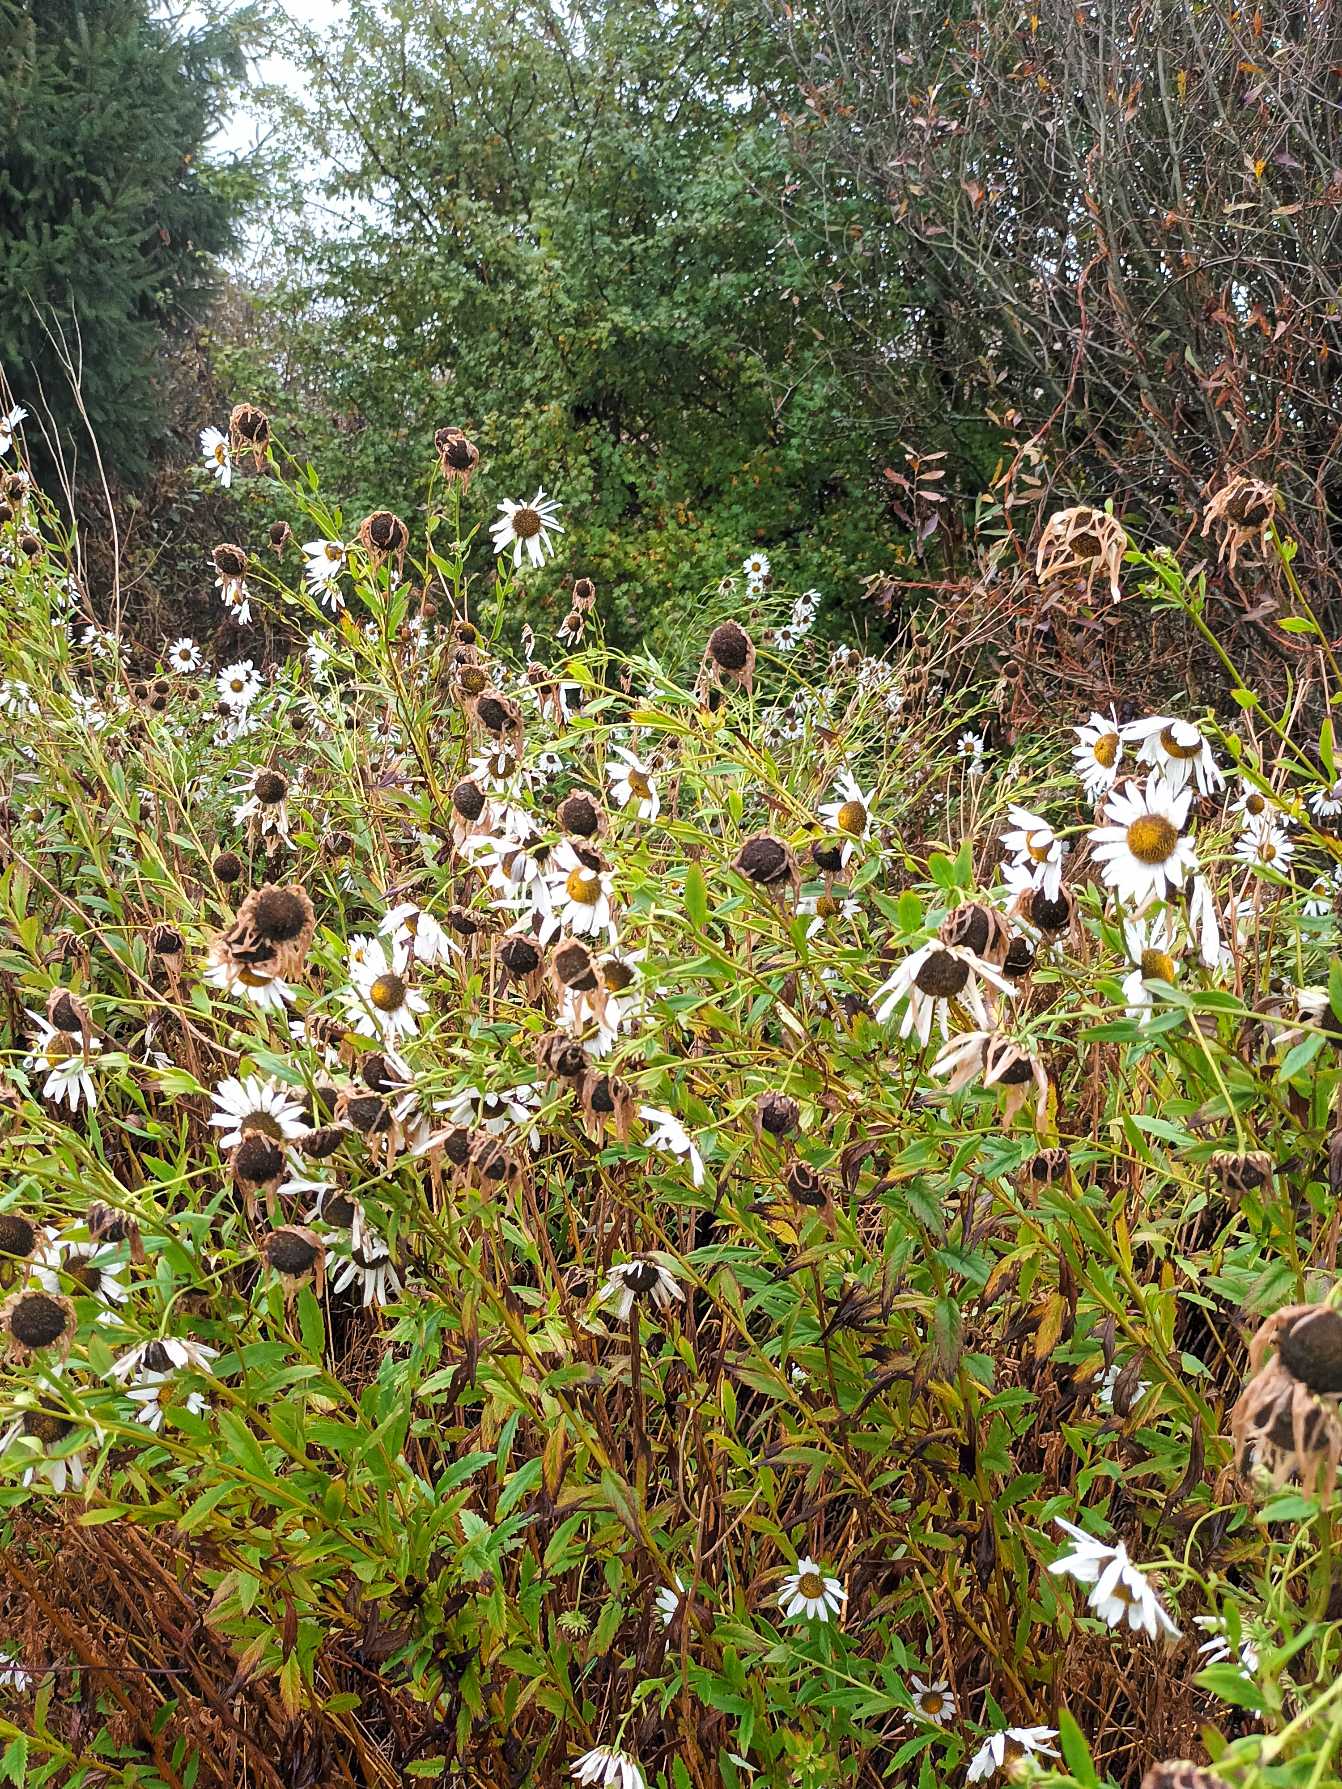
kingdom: Plantae
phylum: Tracheophyta
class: Magnoliopsida
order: Asterales
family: Asteraceae
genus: Leucanthemella
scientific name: Leucanthemella serotina
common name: Oktober-margerit
